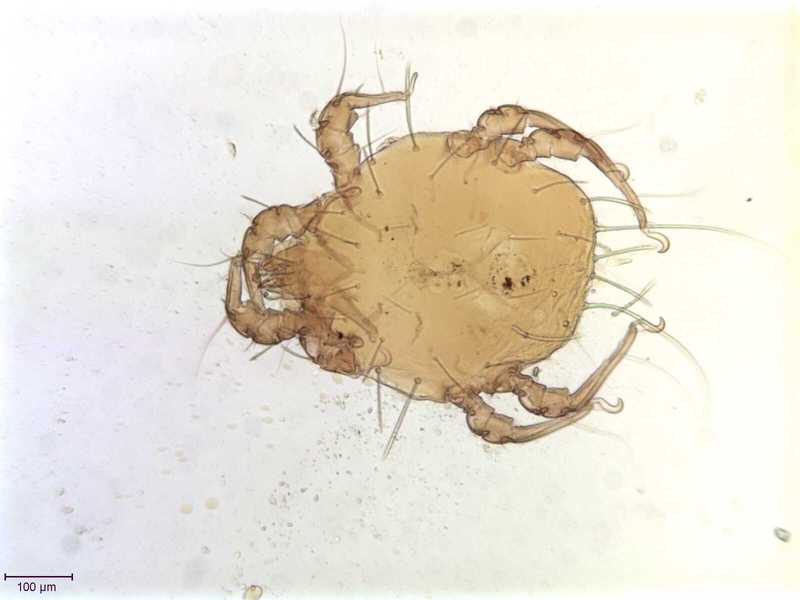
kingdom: Animalia
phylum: Arthropoda
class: Arachnida
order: Sarcoptiformes
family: Chaetodactylidae
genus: Sennertia
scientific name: Sennertia morstatti
